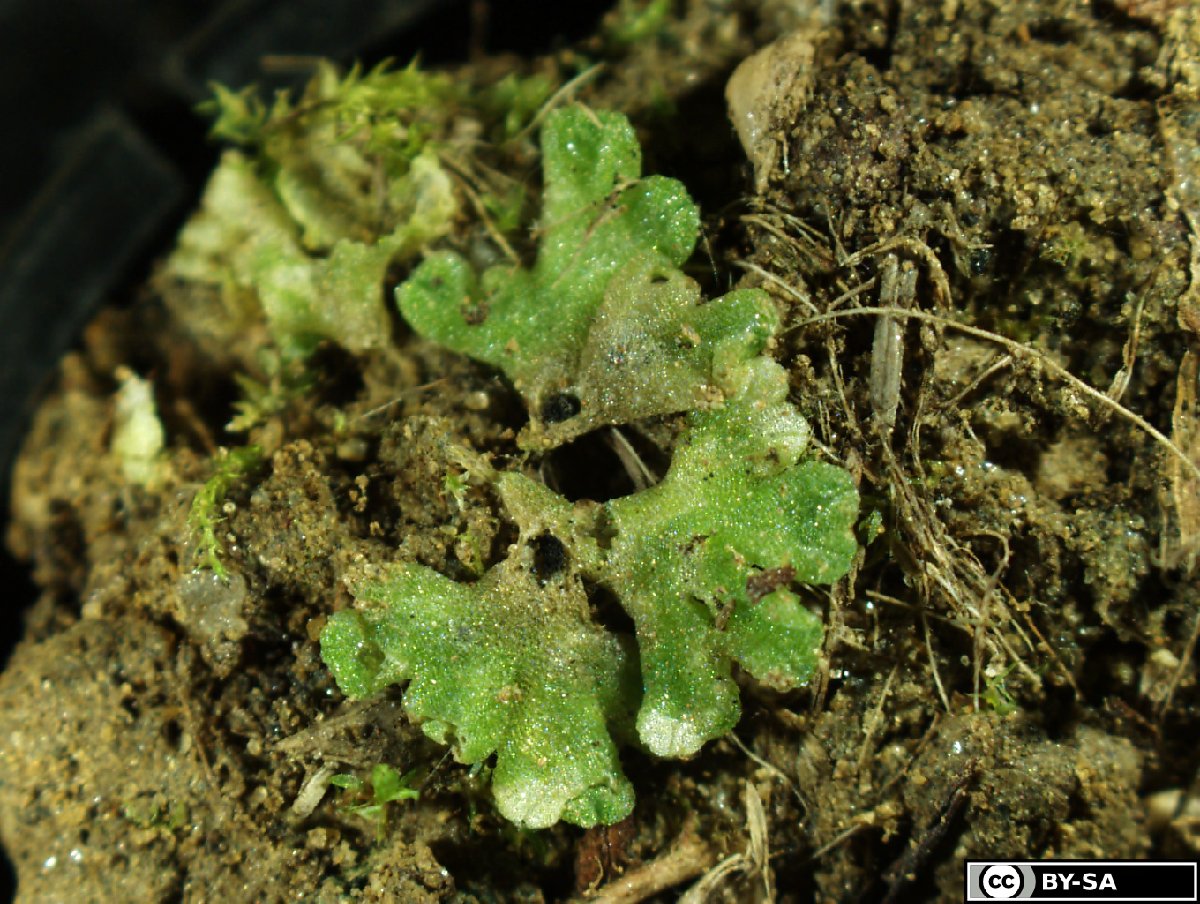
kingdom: Plantae
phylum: Marchantiophyta
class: Marchantiopsida
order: Marchantiales
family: Ricciaceae
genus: Riccia
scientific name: Riccia bifurca
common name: Lizard crystalwort
